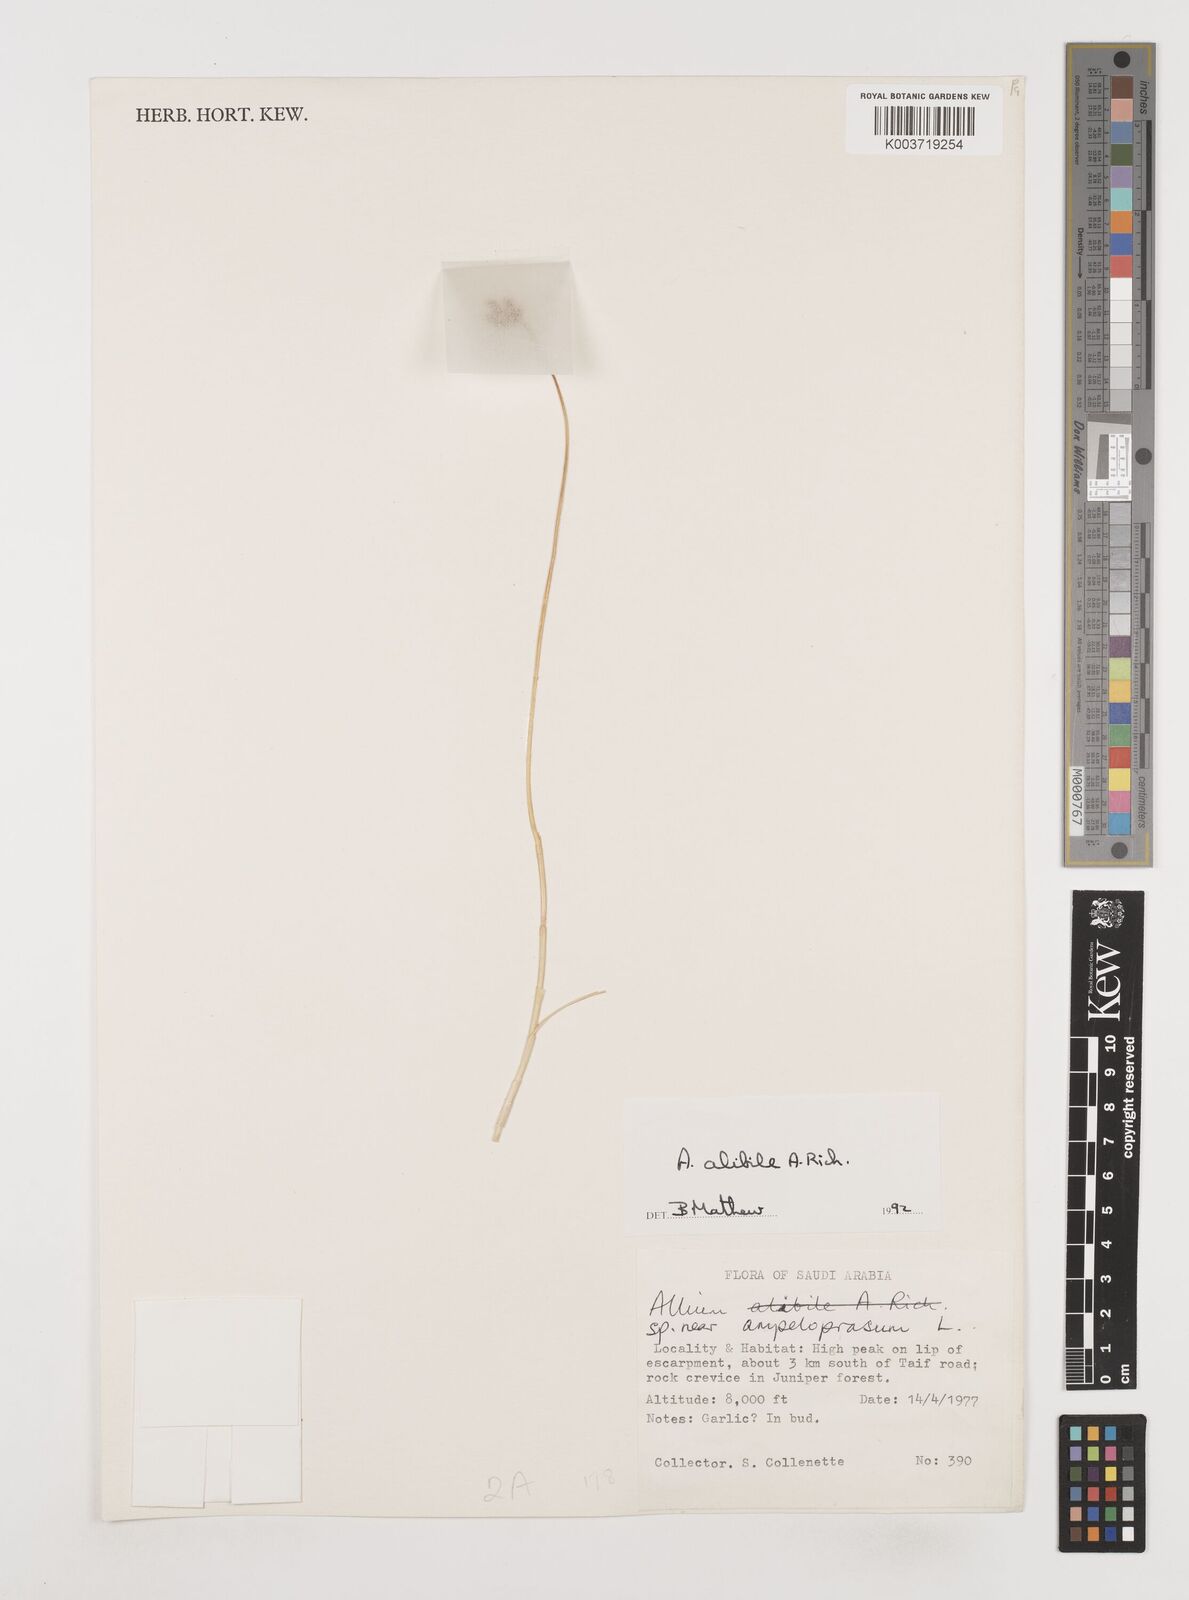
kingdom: Plantae
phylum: Tracheophyta
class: Liliopsida
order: Asparagales
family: Amaryllidaceae
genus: Allium
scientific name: Allium alibile
